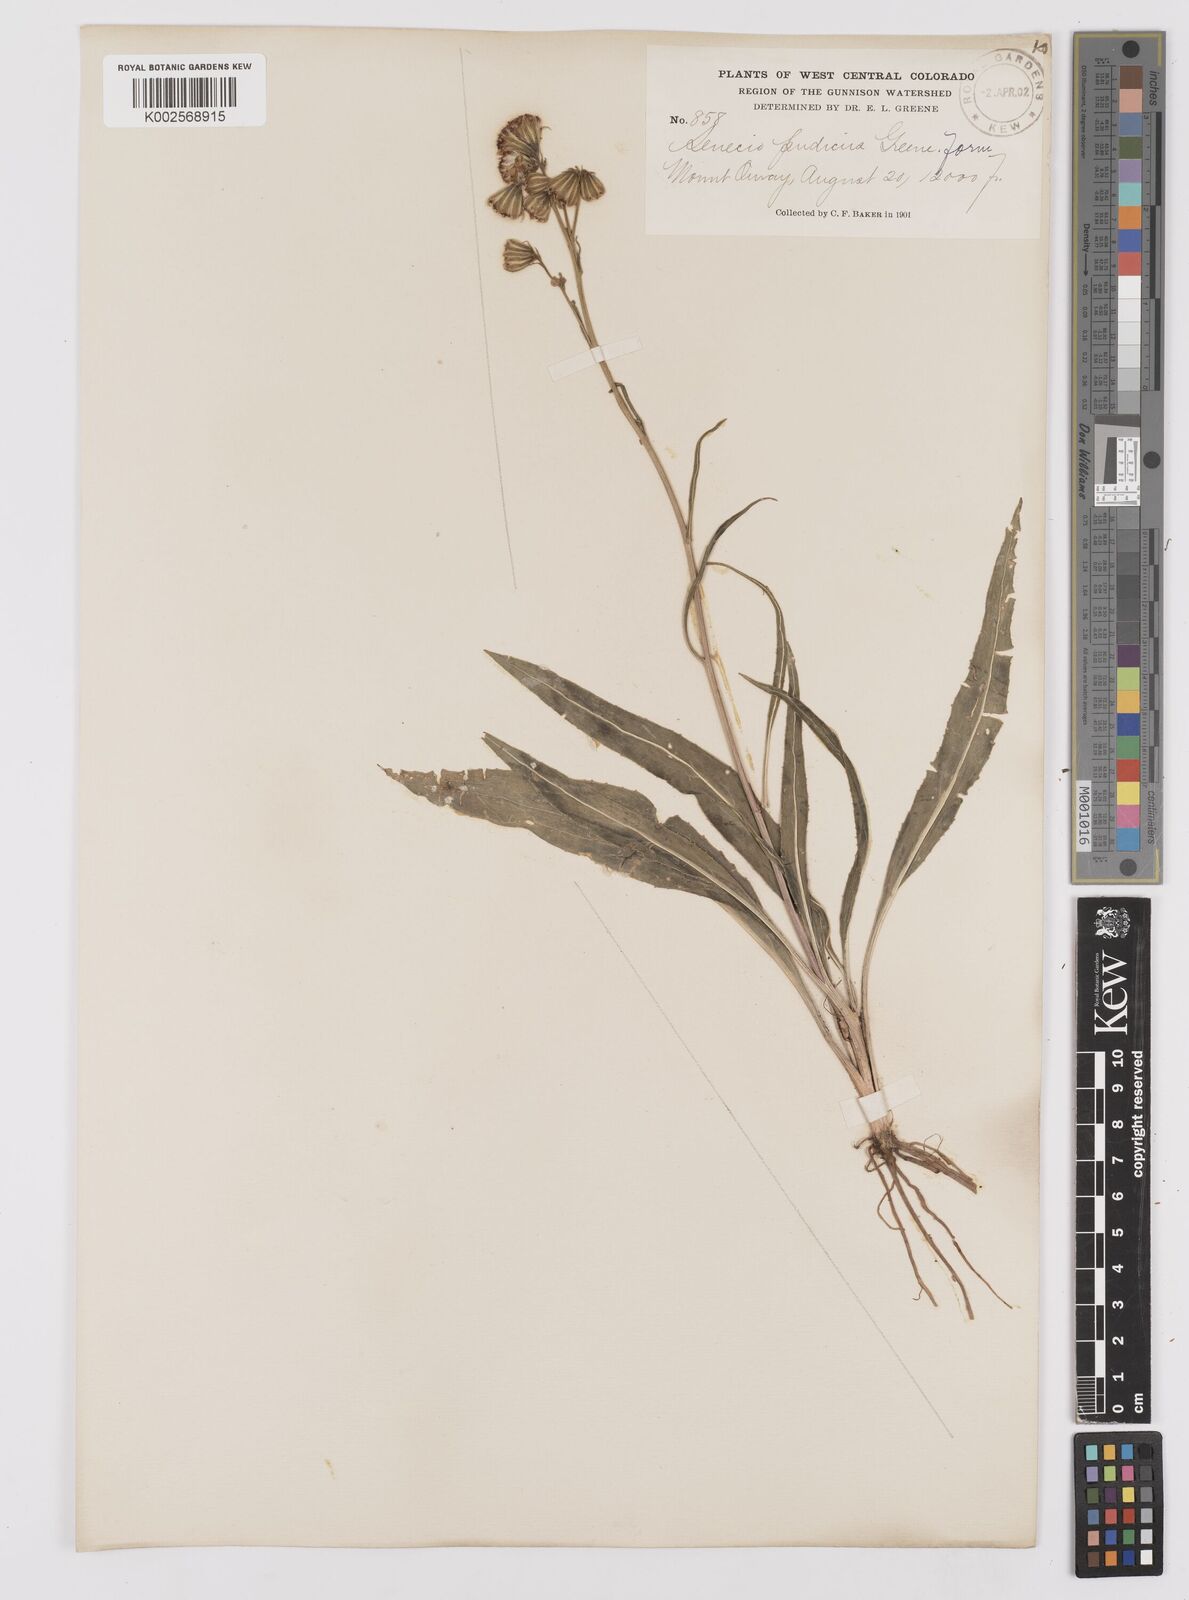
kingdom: Plantae
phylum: Tracheophyta
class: Magnoliopsida
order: Asterales
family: Asteraceae
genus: Senecio
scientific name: Senecio pudicus
